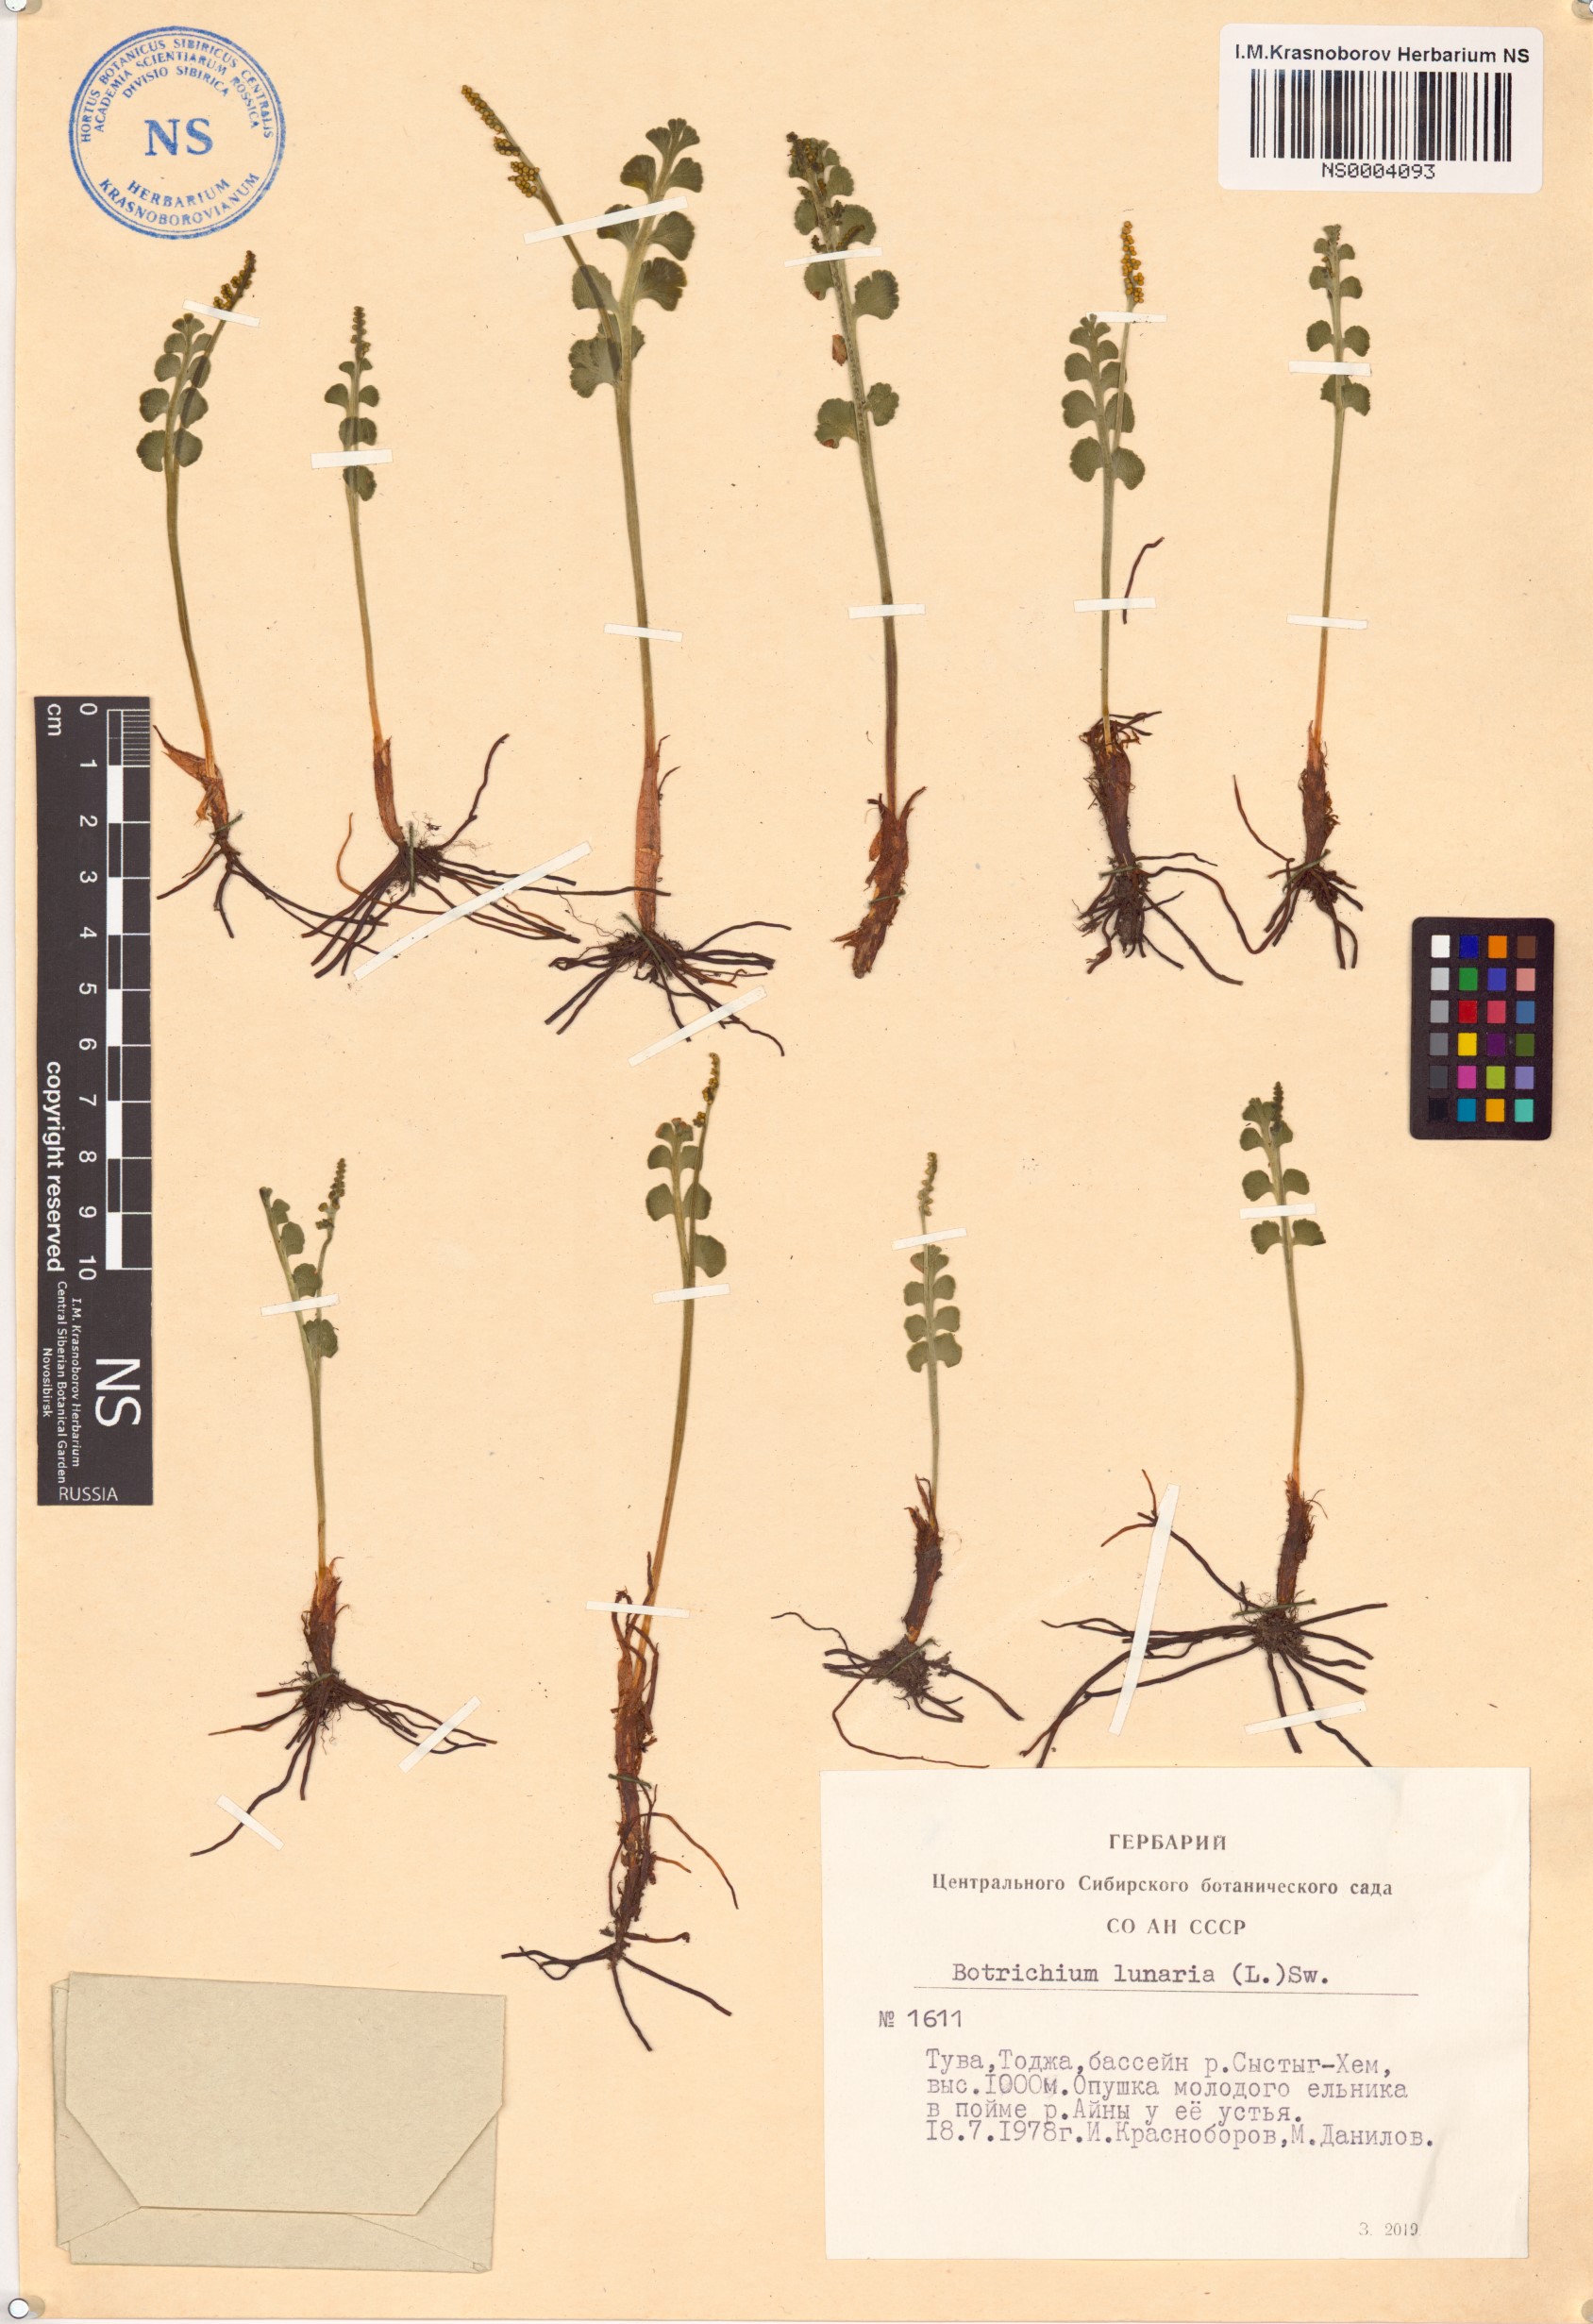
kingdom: Plantae
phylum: Tracheophyta
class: Polypodiopsida
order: Ophioglossales
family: Ophioglossaceae
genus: Botrychium
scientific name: Botrychium lunaria
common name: Moonwort
